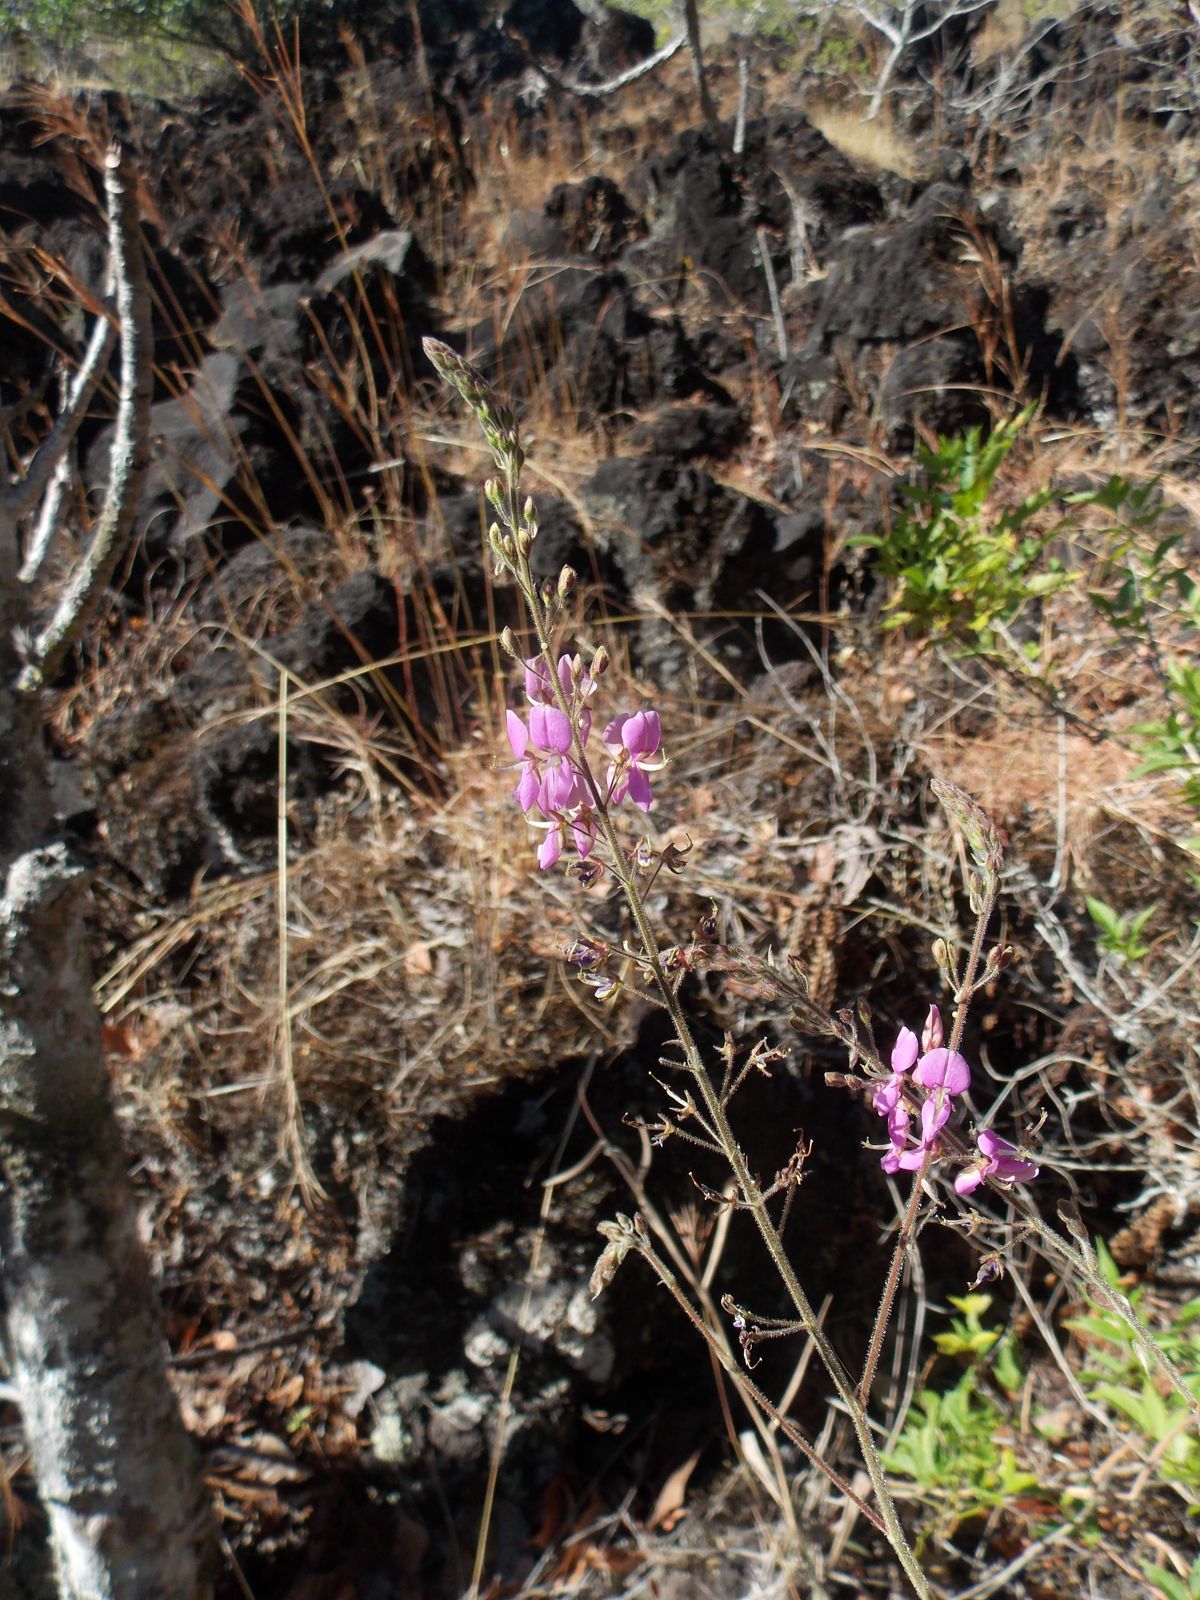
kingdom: Plantae
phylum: Tracheophyta
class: Magnoliopsida
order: Fabales
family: Fabaceae
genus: Desmodium
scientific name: Desmodium affine
